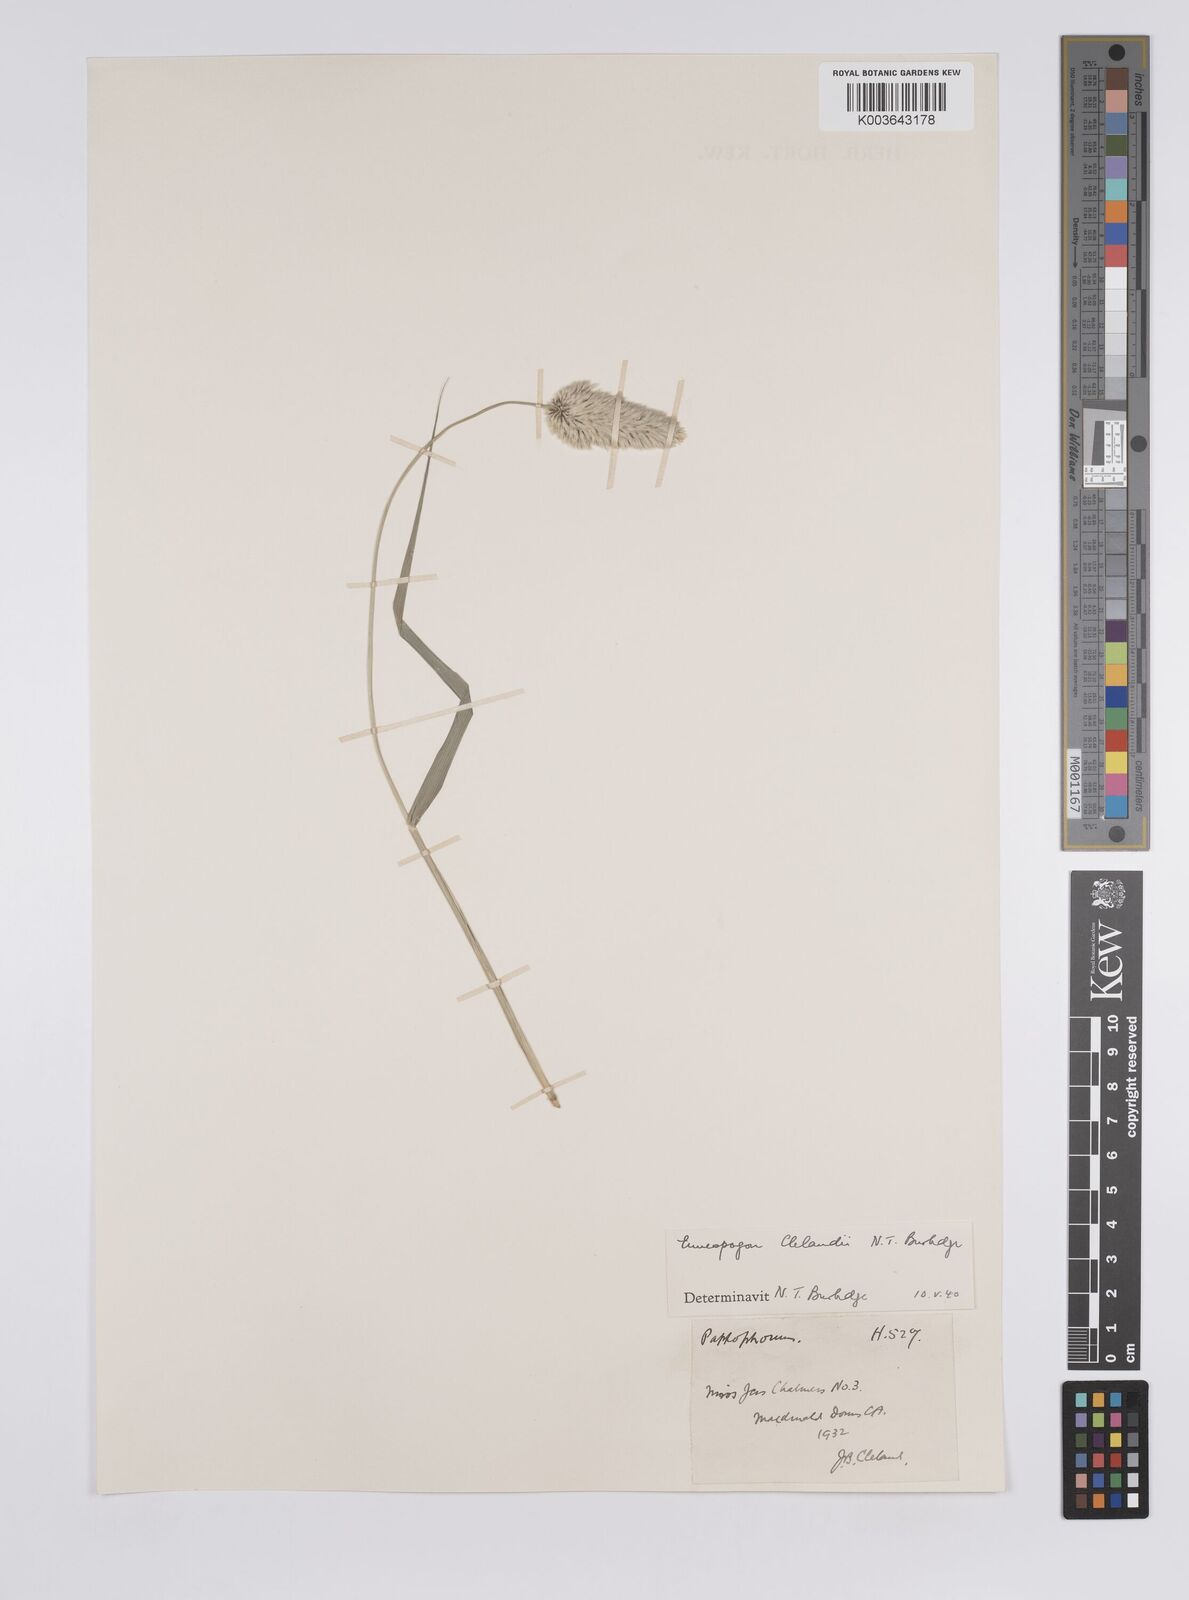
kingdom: Plantae
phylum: Tracheophyta
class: Liliopsida
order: Poales
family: Poaceae
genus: Enneapogon
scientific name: Enneapogon robustissimus
